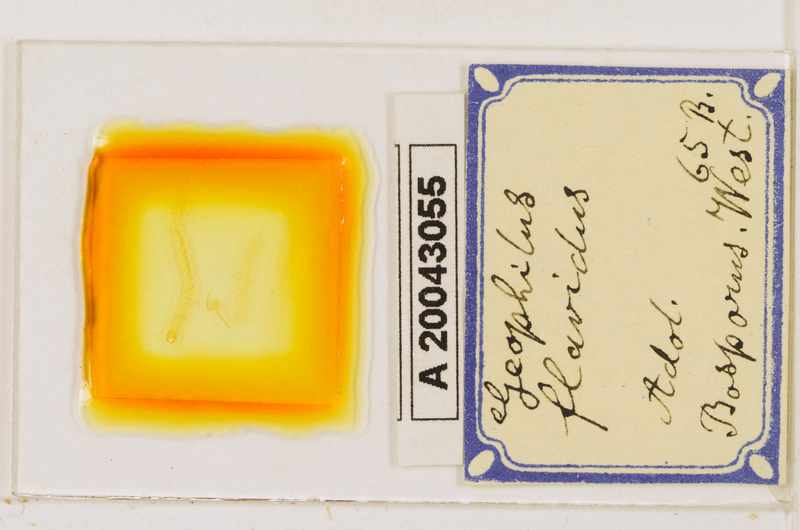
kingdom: Animalia
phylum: Arthropoda
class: Chilopoda
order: Geophilomorpha
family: Geophilidae
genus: Clinopodes
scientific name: Clinopodes flavidus
